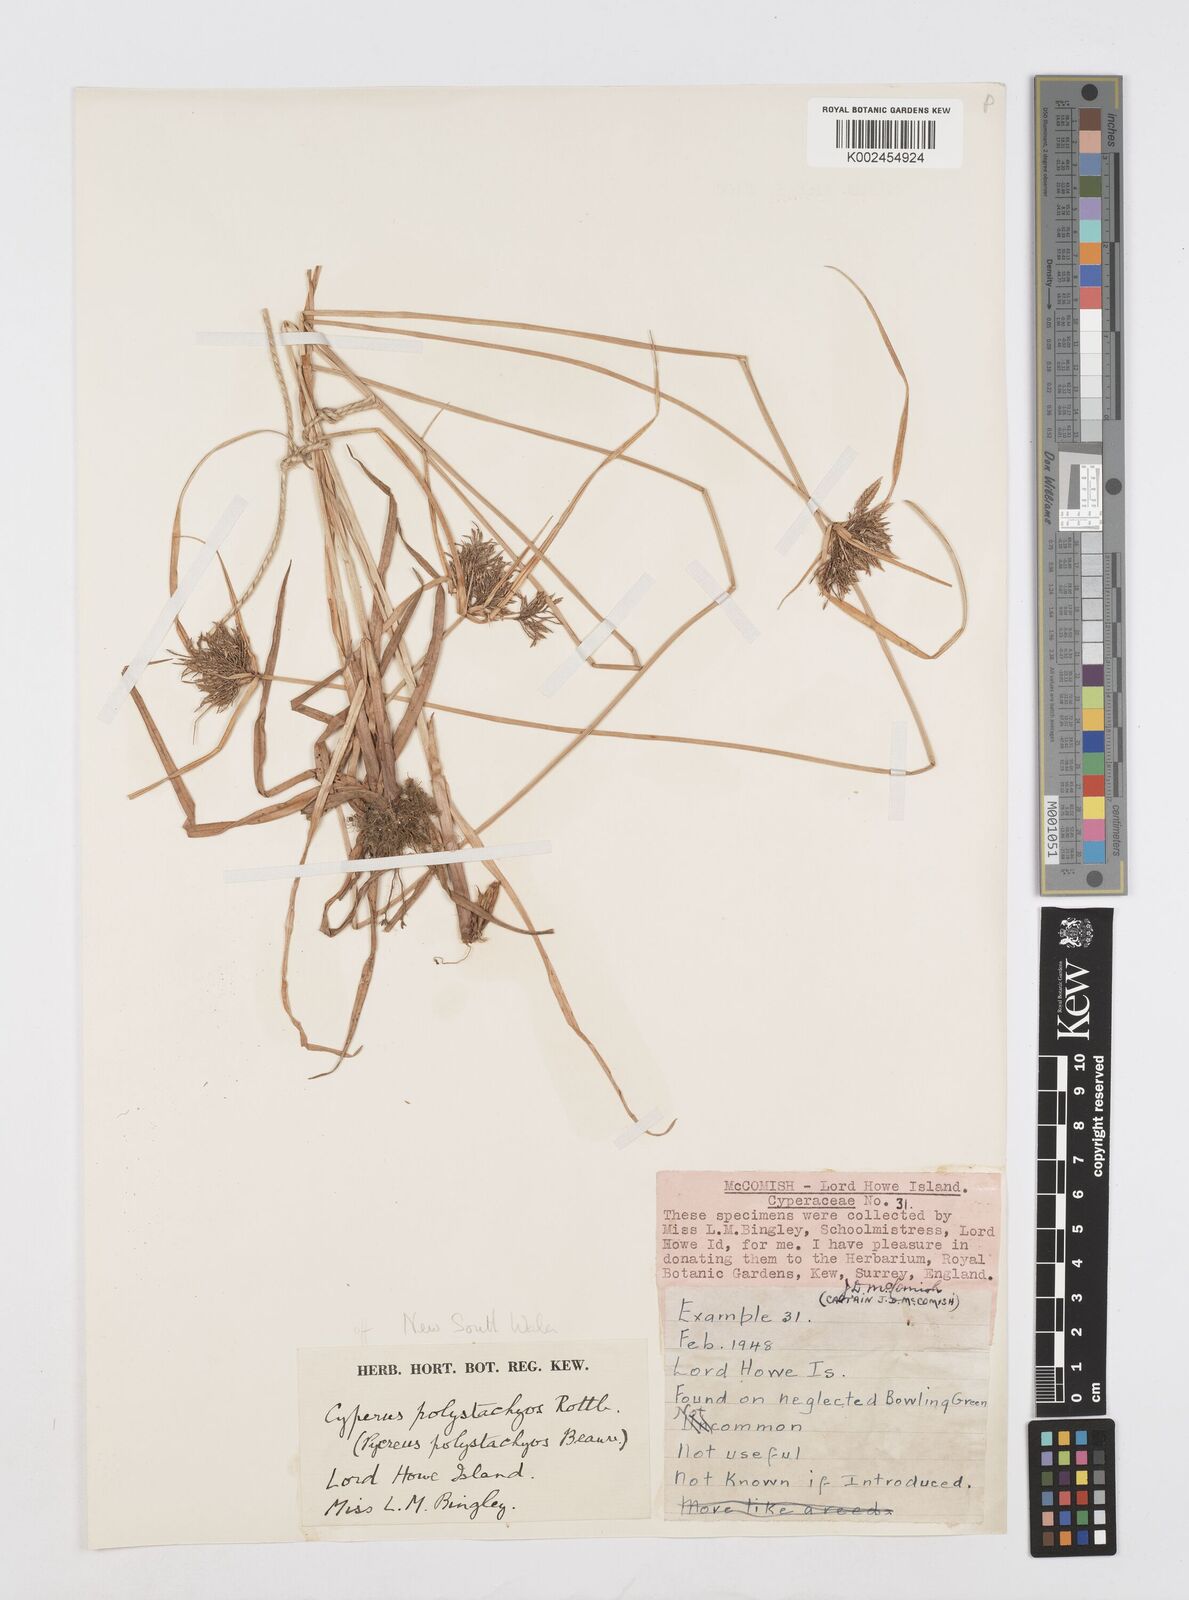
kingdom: Plantae
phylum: Tracheophyta
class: Liliopsida
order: Poales
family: Cyperaceae
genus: Cyperus
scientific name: Cyperus polystachyos
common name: Bunchy flat sedge
